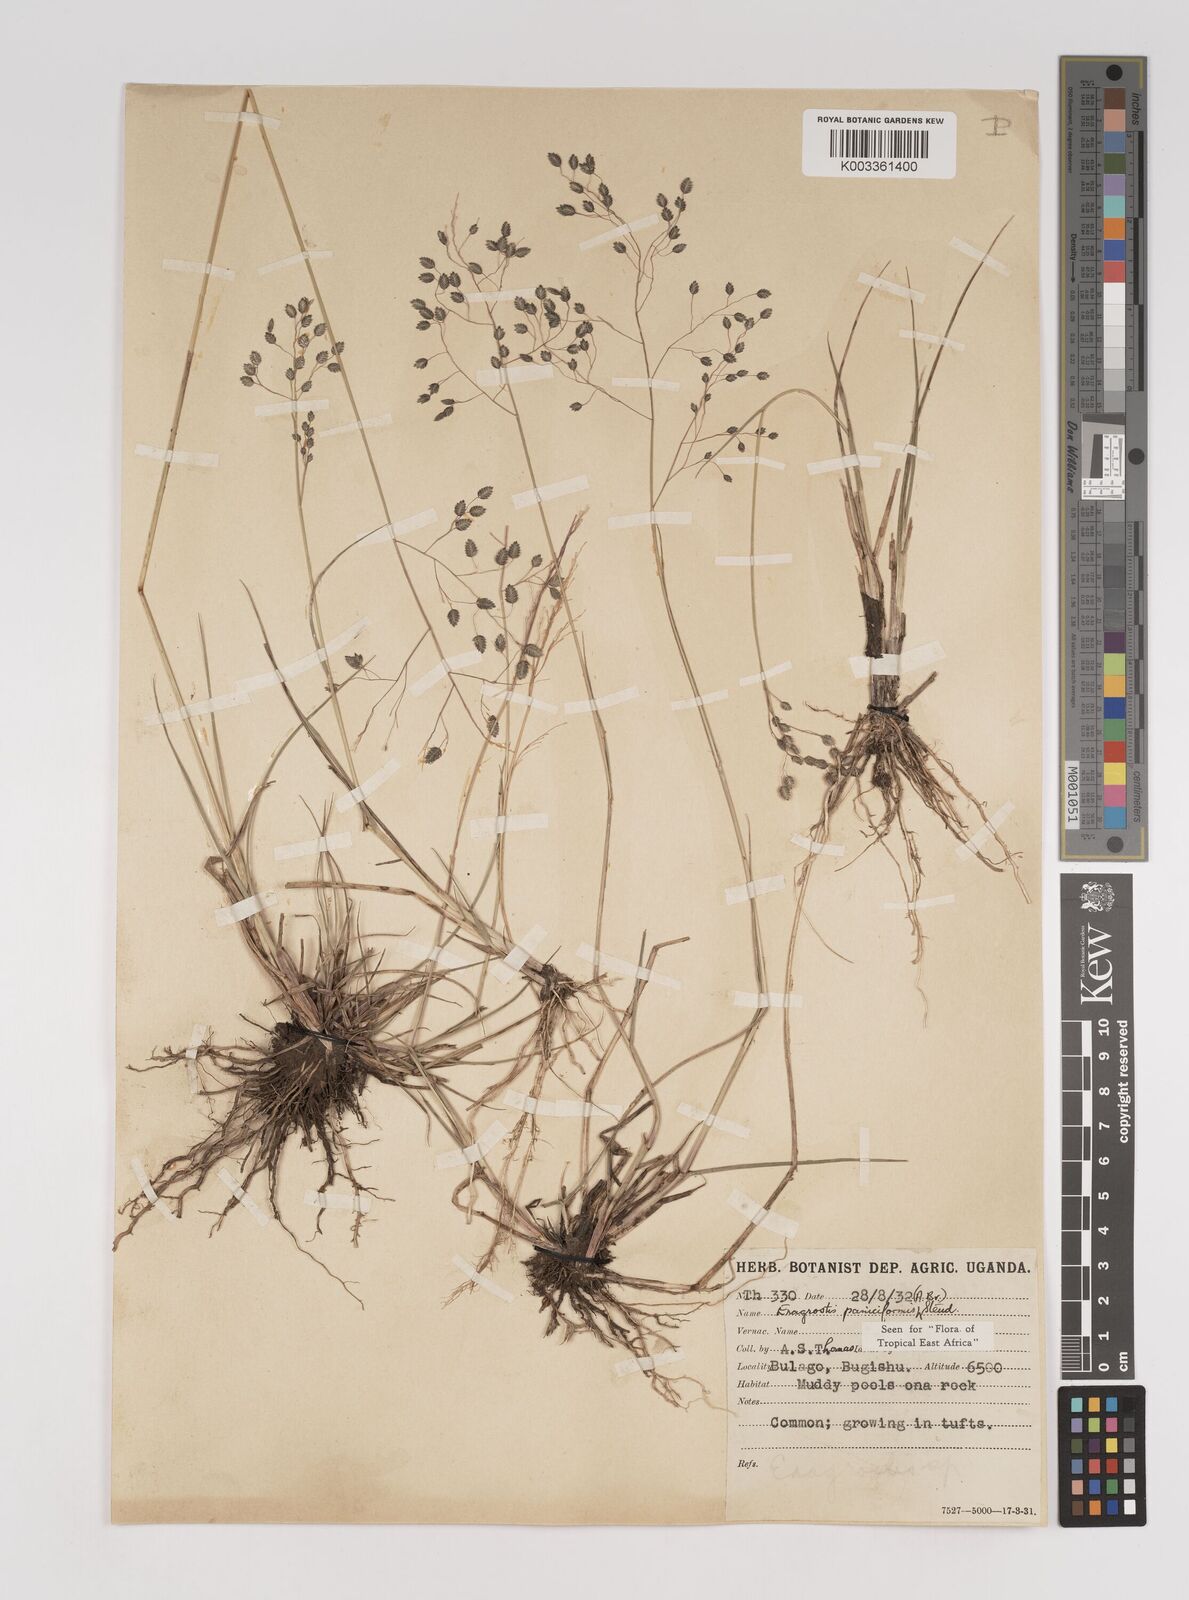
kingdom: Plantae
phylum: Tracheophyta
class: Liliopsida
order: Poales
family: Poaceae
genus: Eragrostis
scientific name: Eragrostis paniciformis
